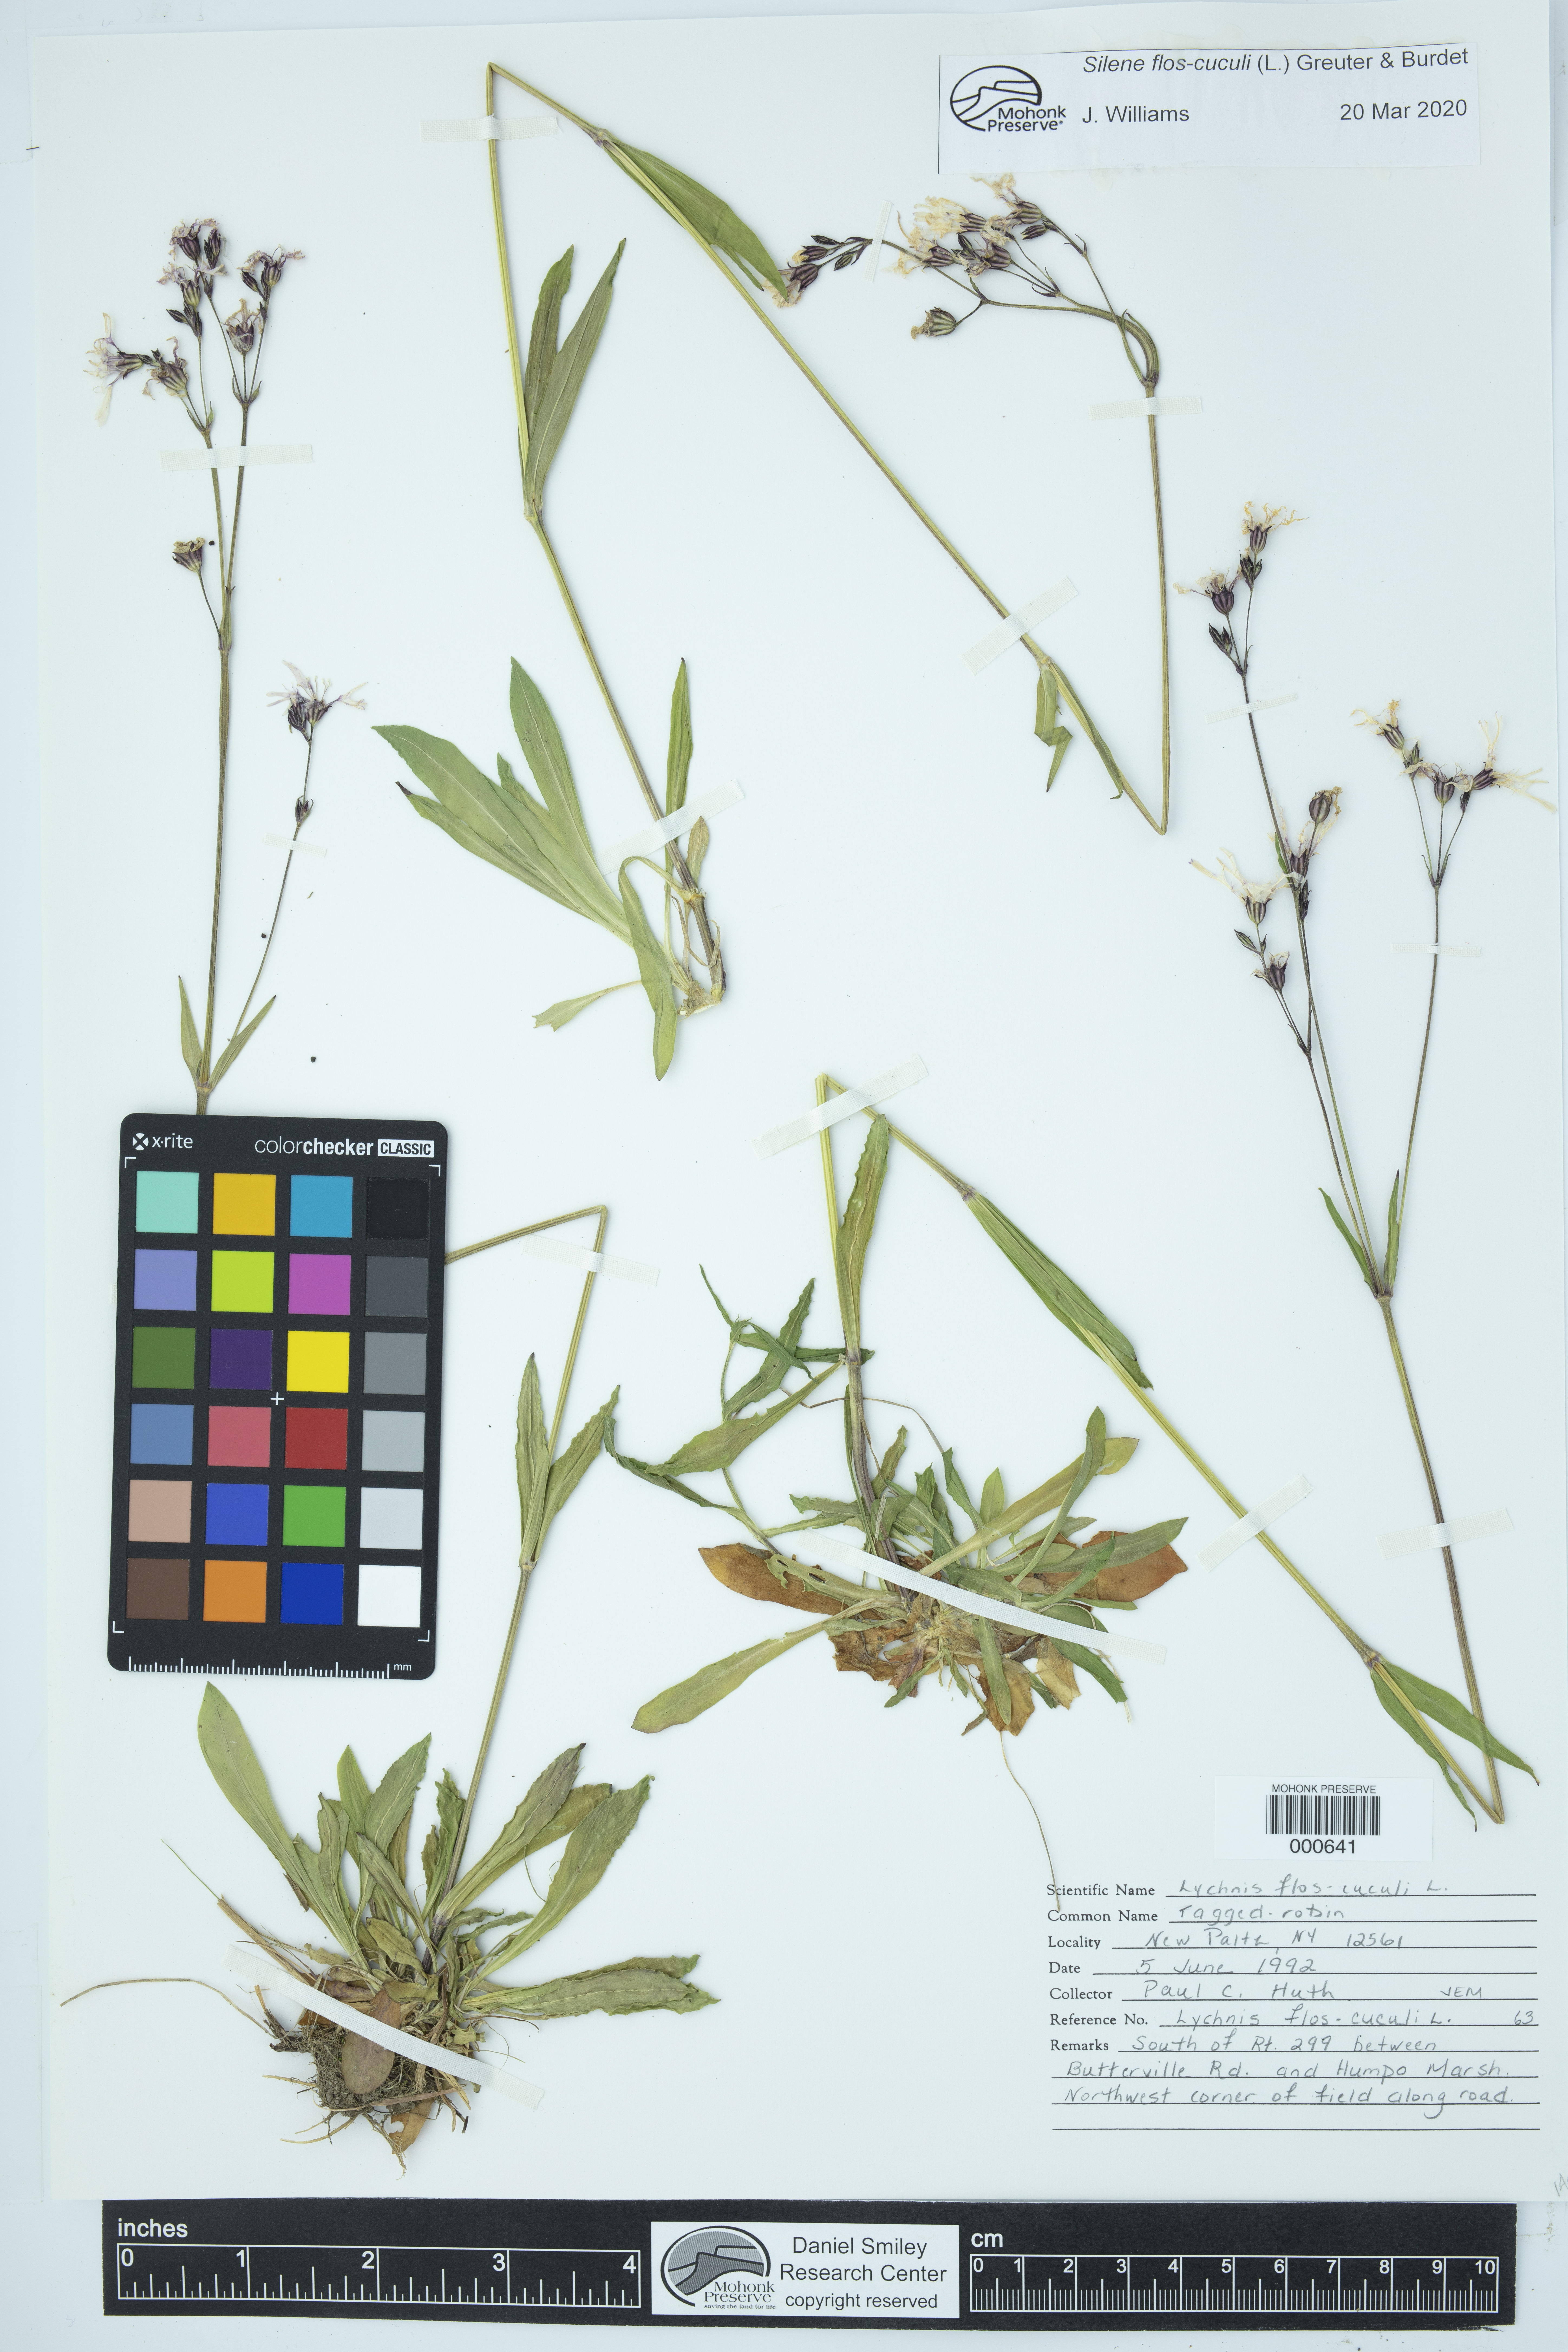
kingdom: Plantae
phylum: Tracheophyta
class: Magnoliopsida
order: Caryophyllales
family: Caryophyllaceae
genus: Silene
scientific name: Silene flos-cuculi
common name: Ragged-robin
